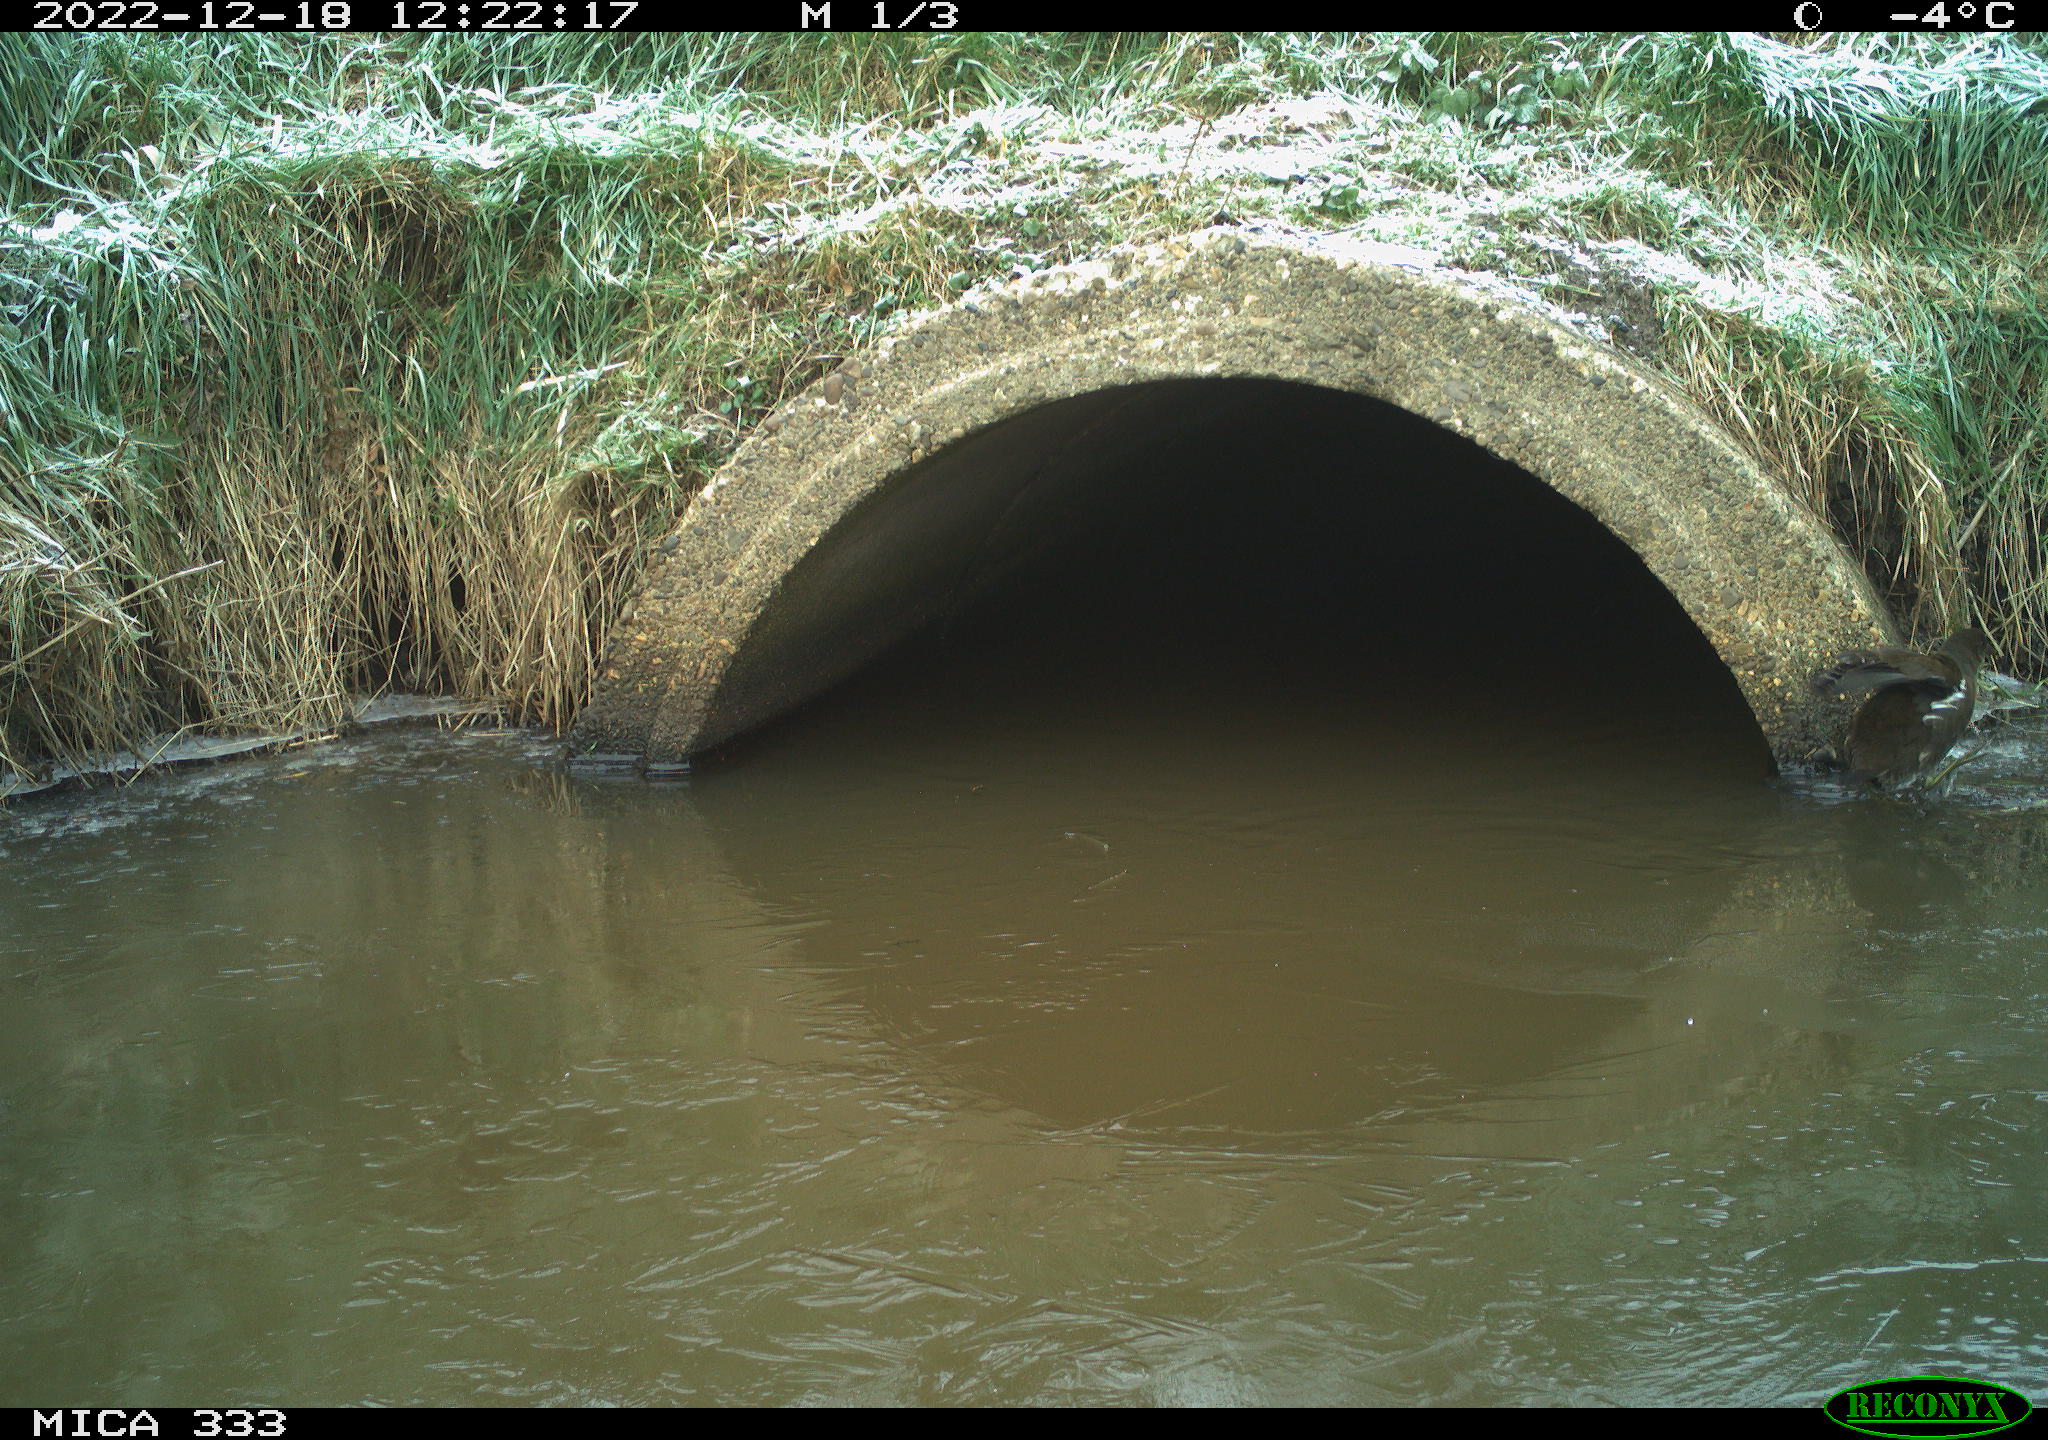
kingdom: Animalia
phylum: Chordata
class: Aves
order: Gruiformes
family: Rallidae
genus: Gallinula
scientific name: Gallinula chloropus
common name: Common moorhen
